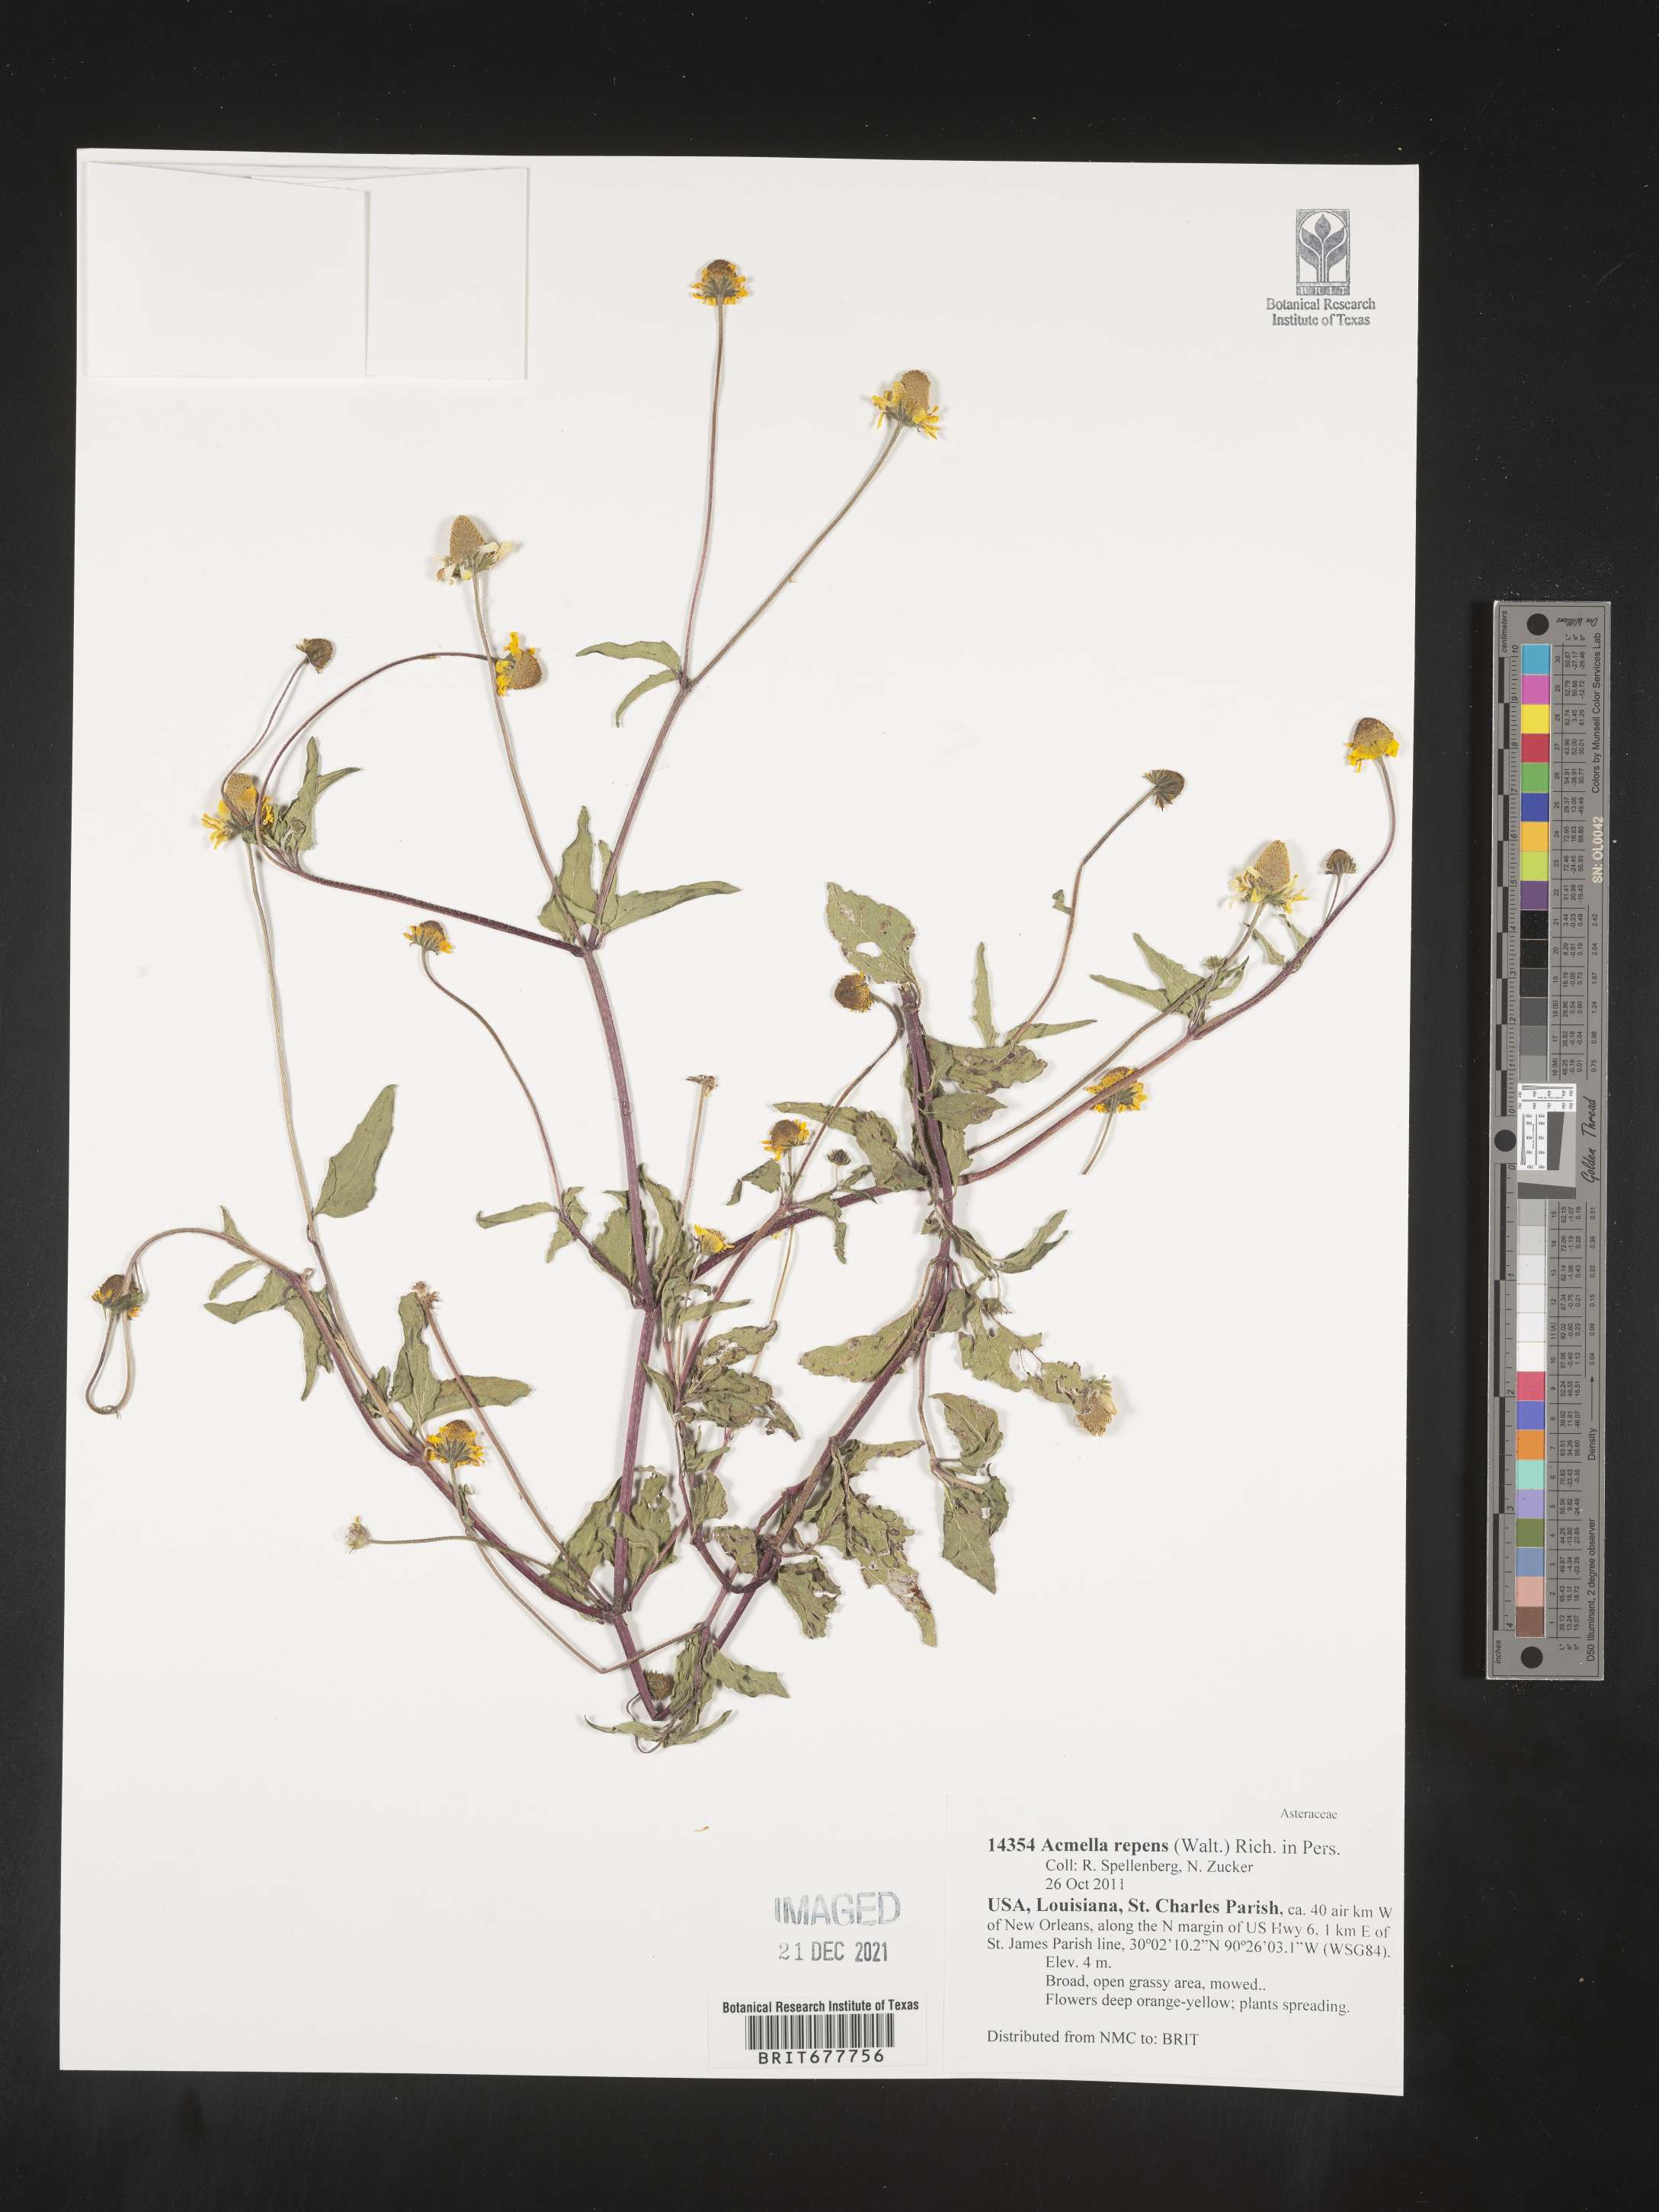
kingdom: Plantae
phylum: Tracheophyta
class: Magnoliopsida
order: Asterales
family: Asteraceae
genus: Spilanthes
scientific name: Spilanthes
